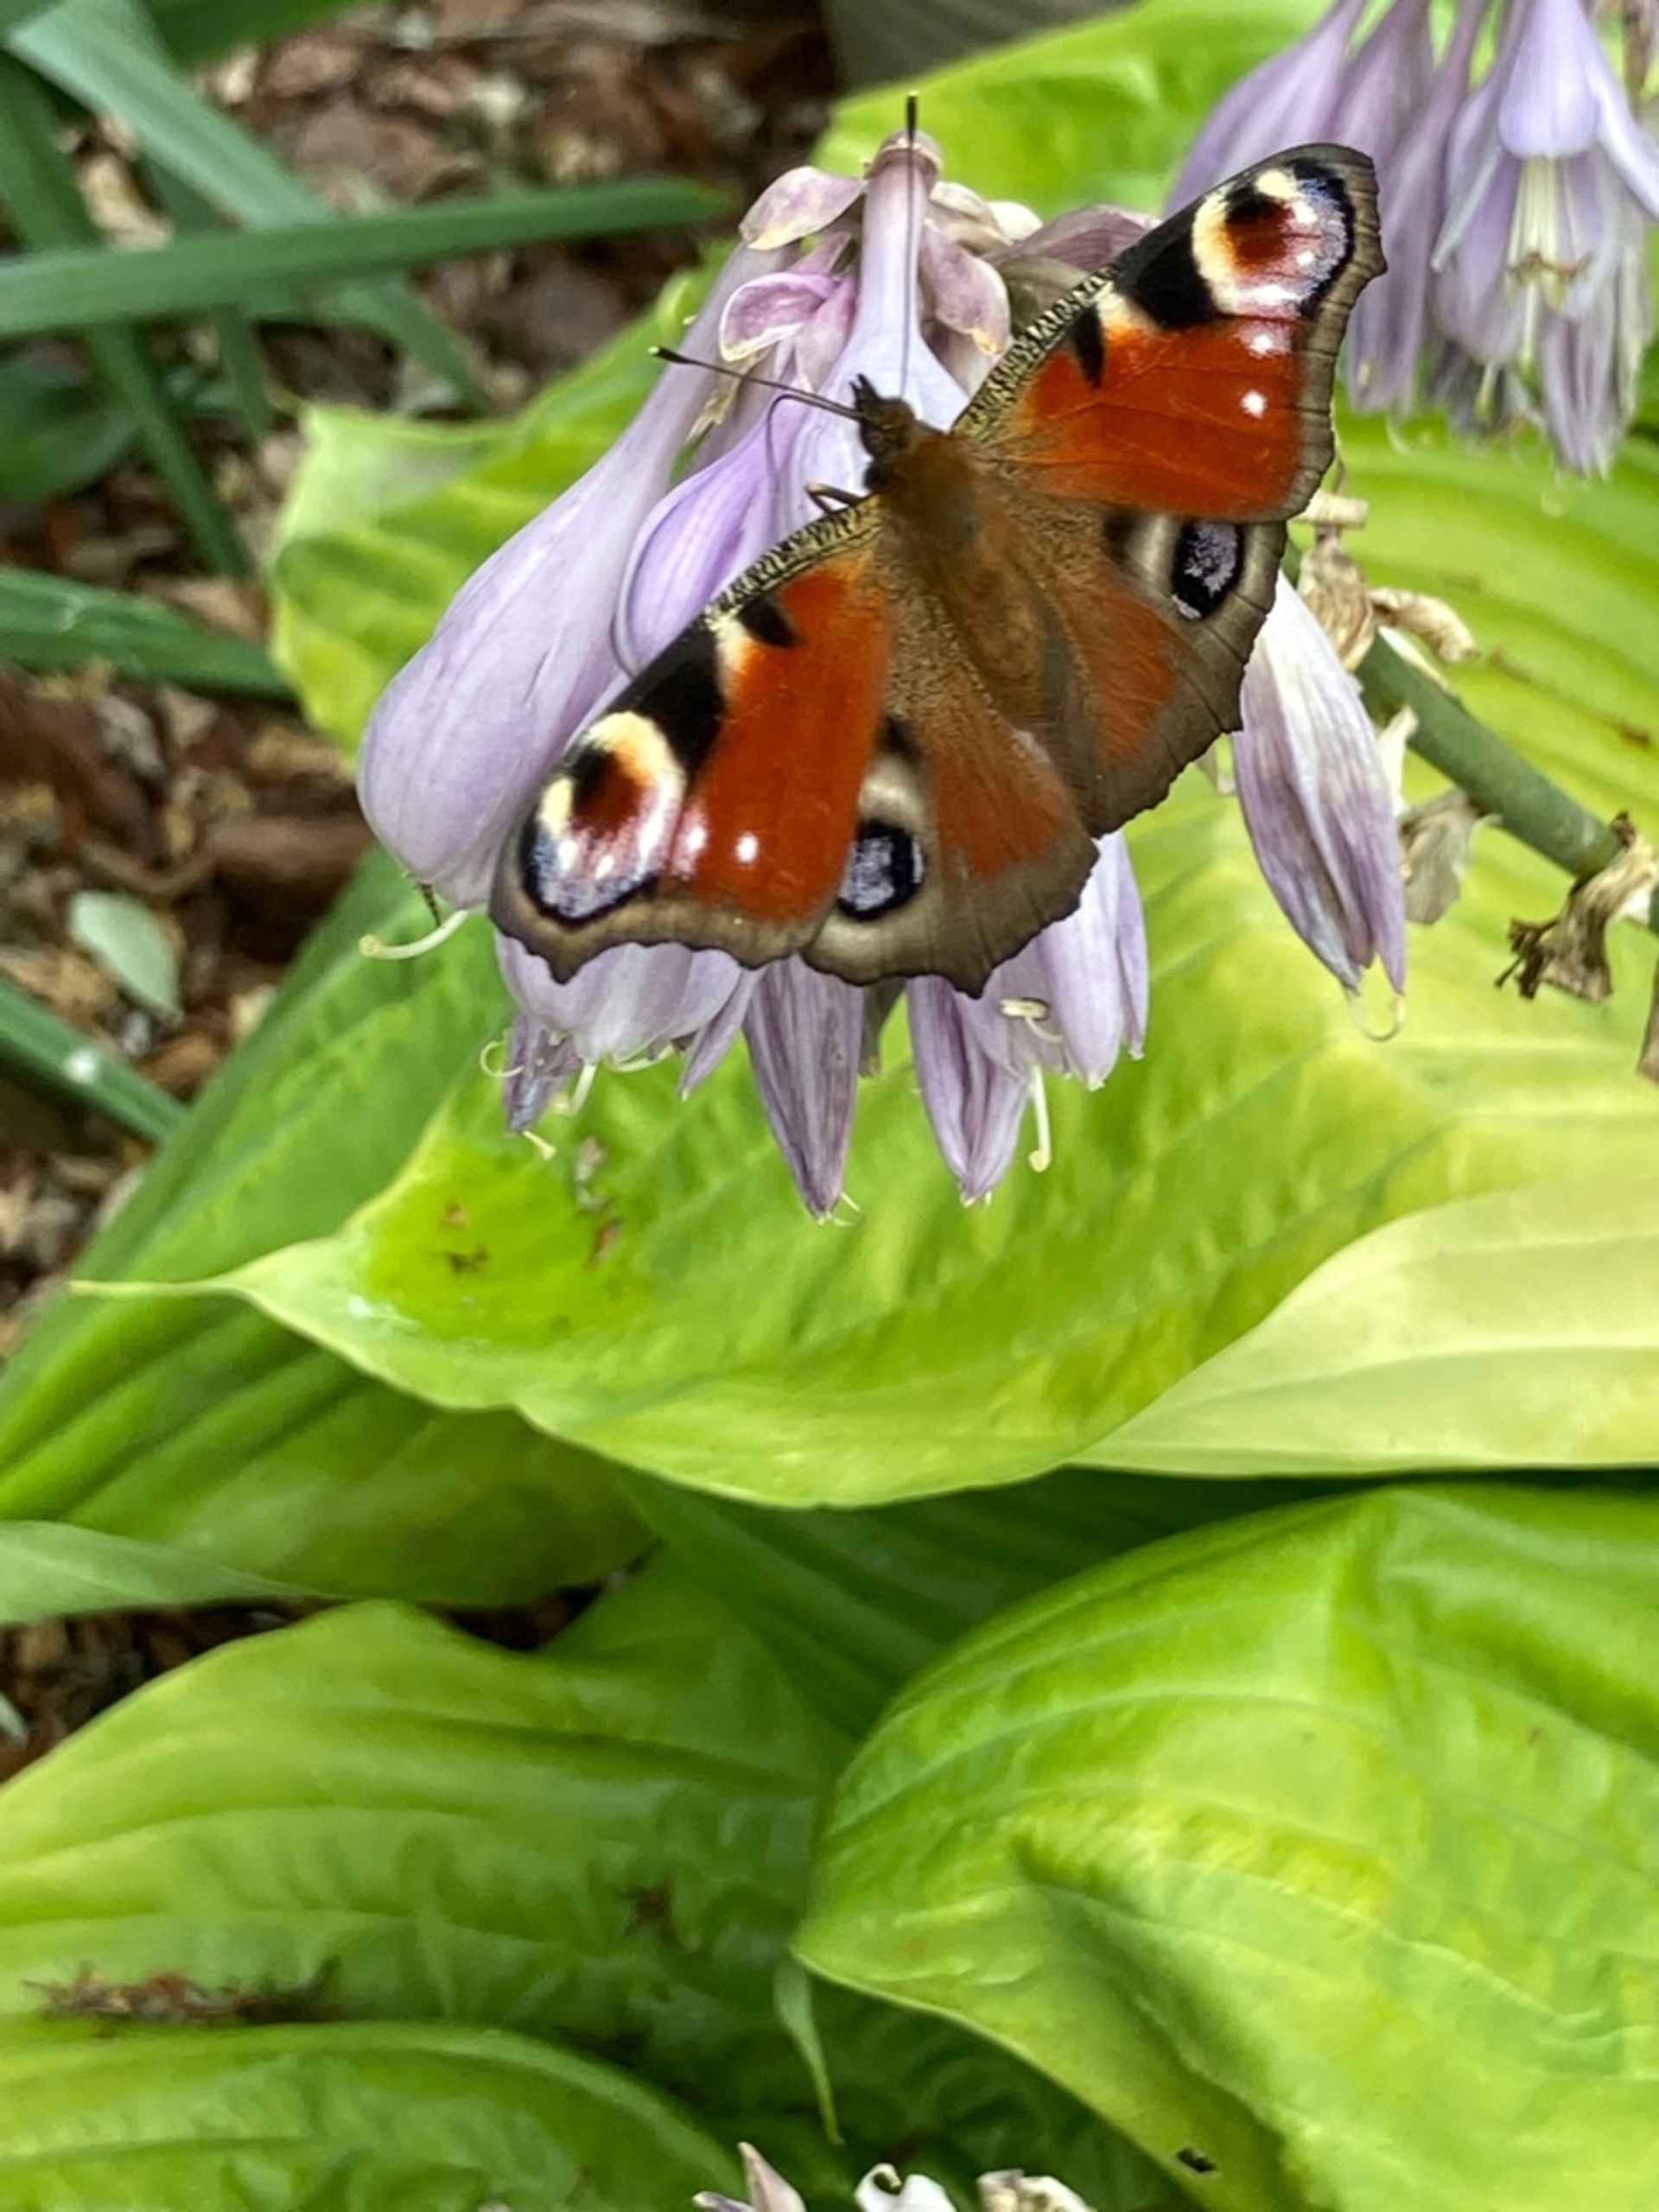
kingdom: Animalia
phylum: Arthropoda
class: Insecta
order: Lepidoptera
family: Nymphalidae
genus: Aglais
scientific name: Aglais io
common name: Dagpåfugleøje
